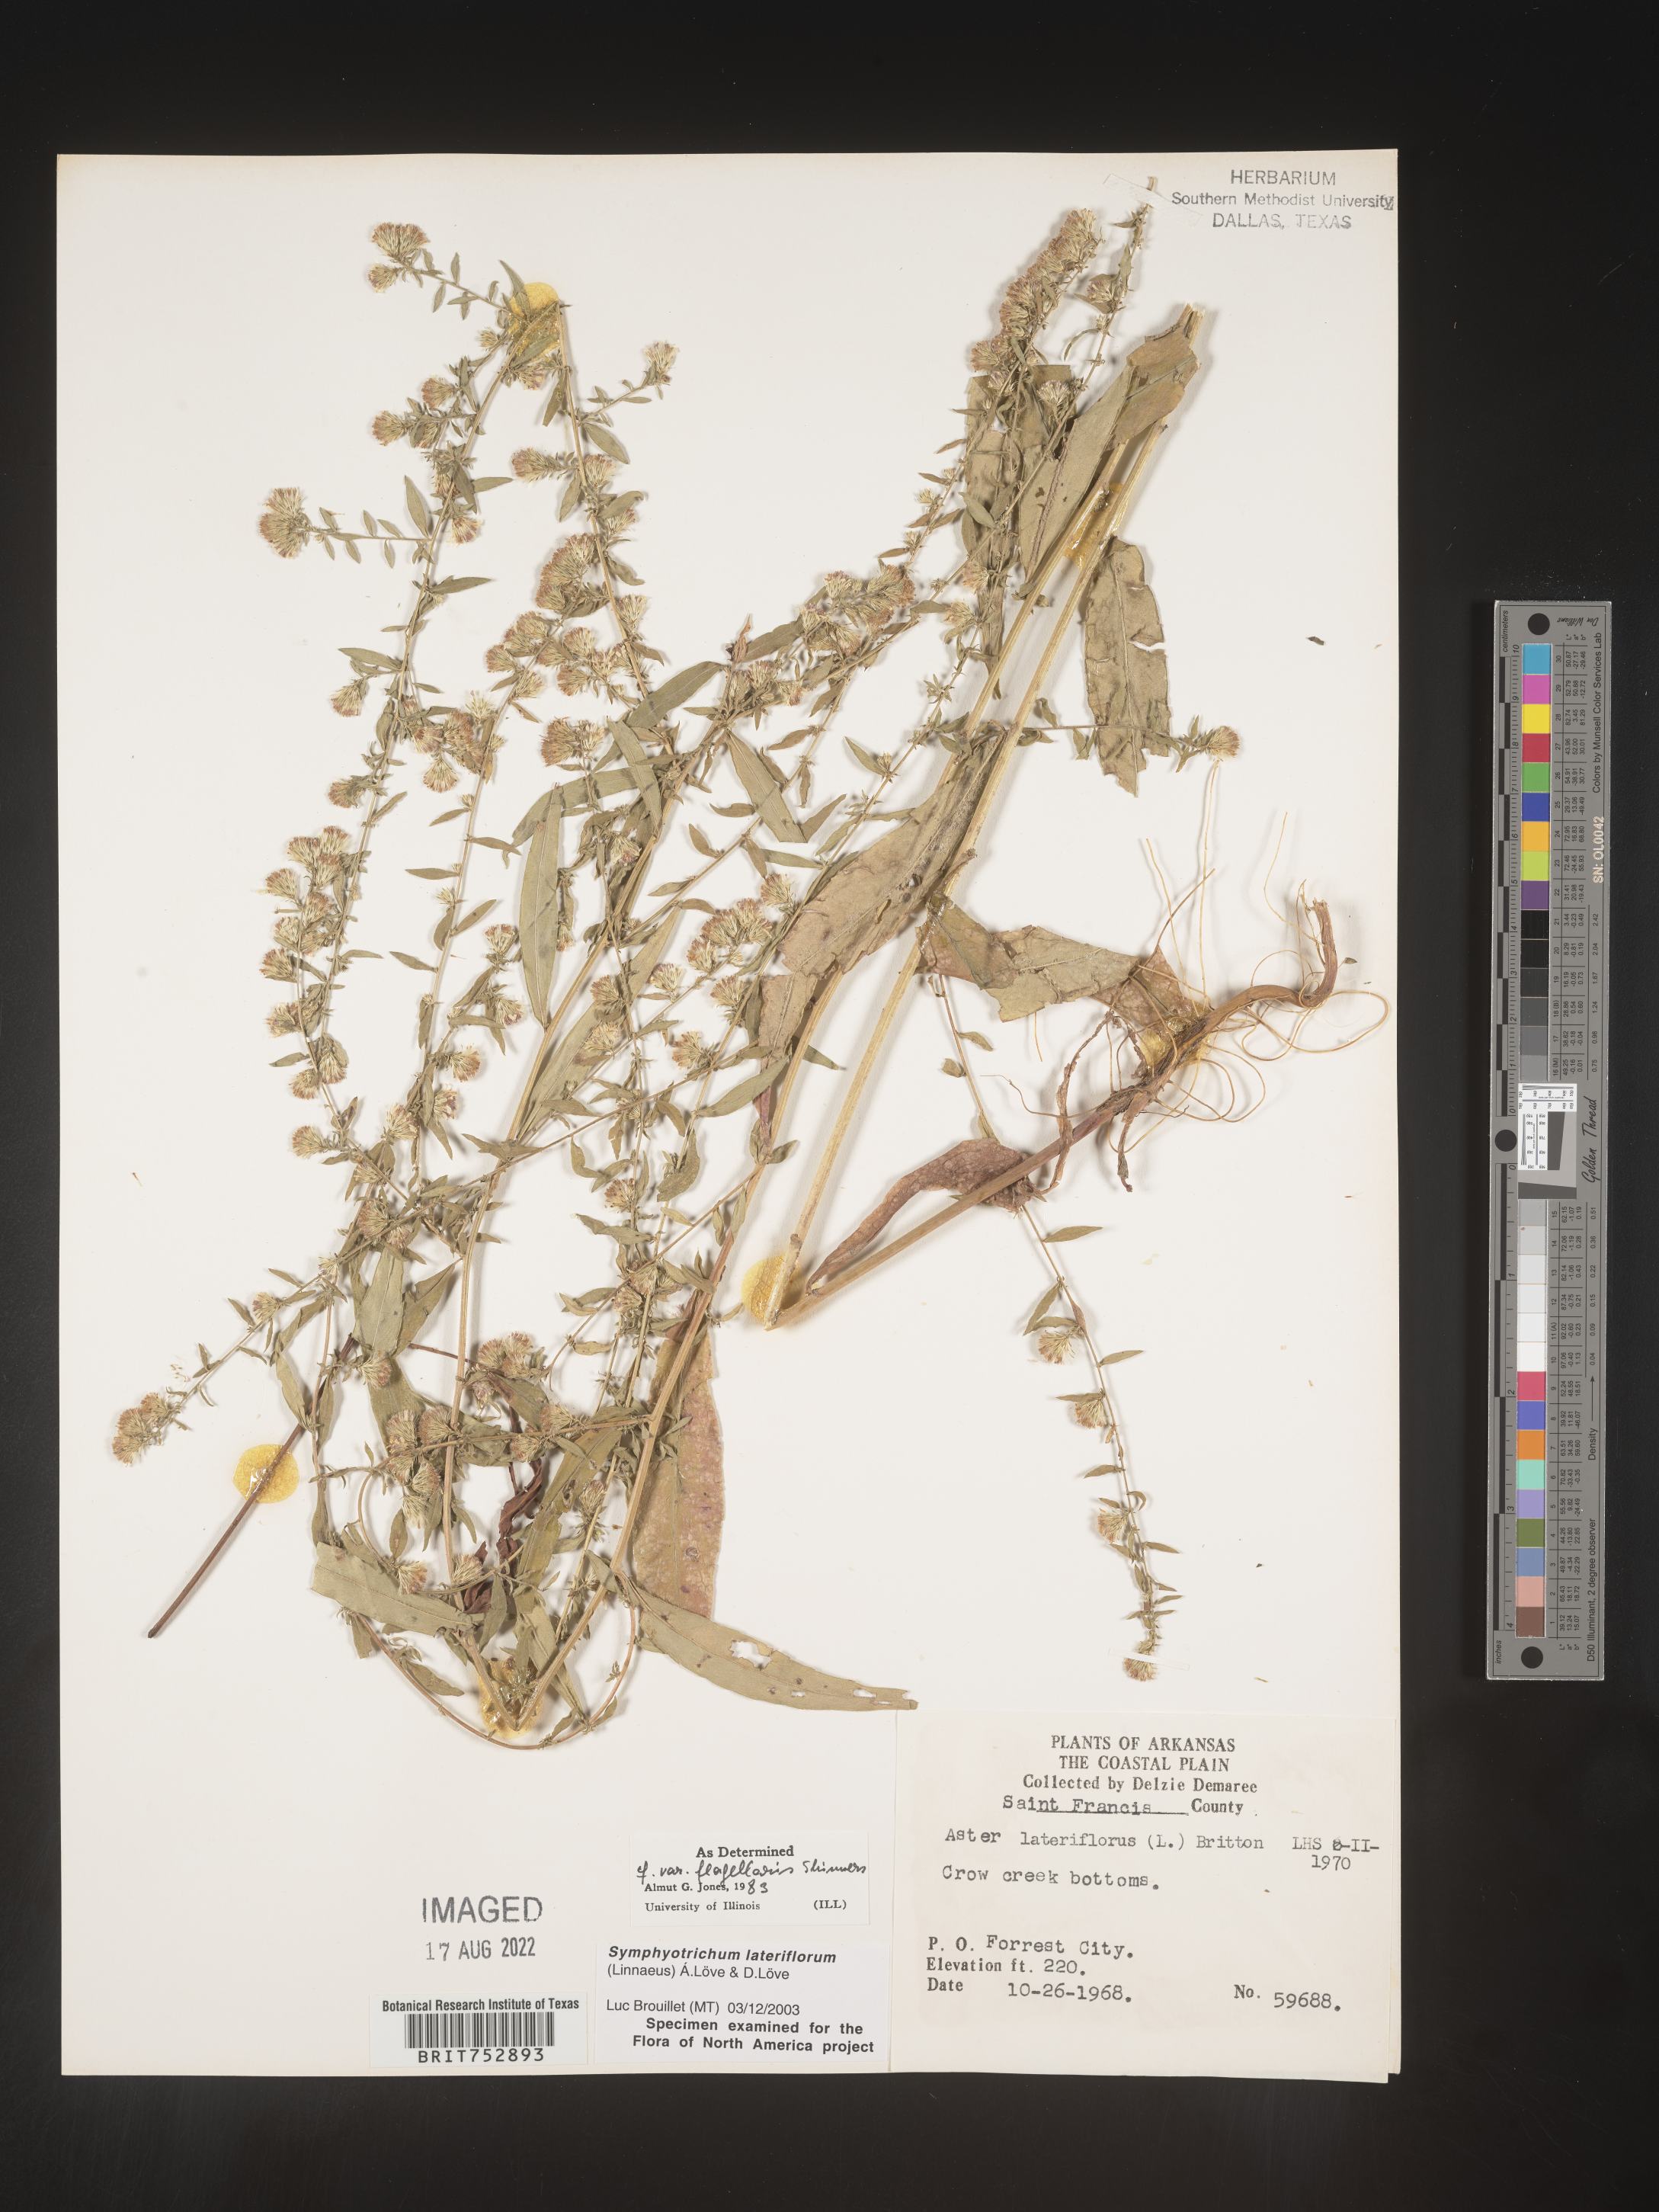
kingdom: Plantae
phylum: Tracheophyta
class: Magnoliopsida
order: Asterales
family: Asteraceae
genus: Symphyotrichum
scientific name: Symphyotrichum lateriflorum
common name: Calico aster
